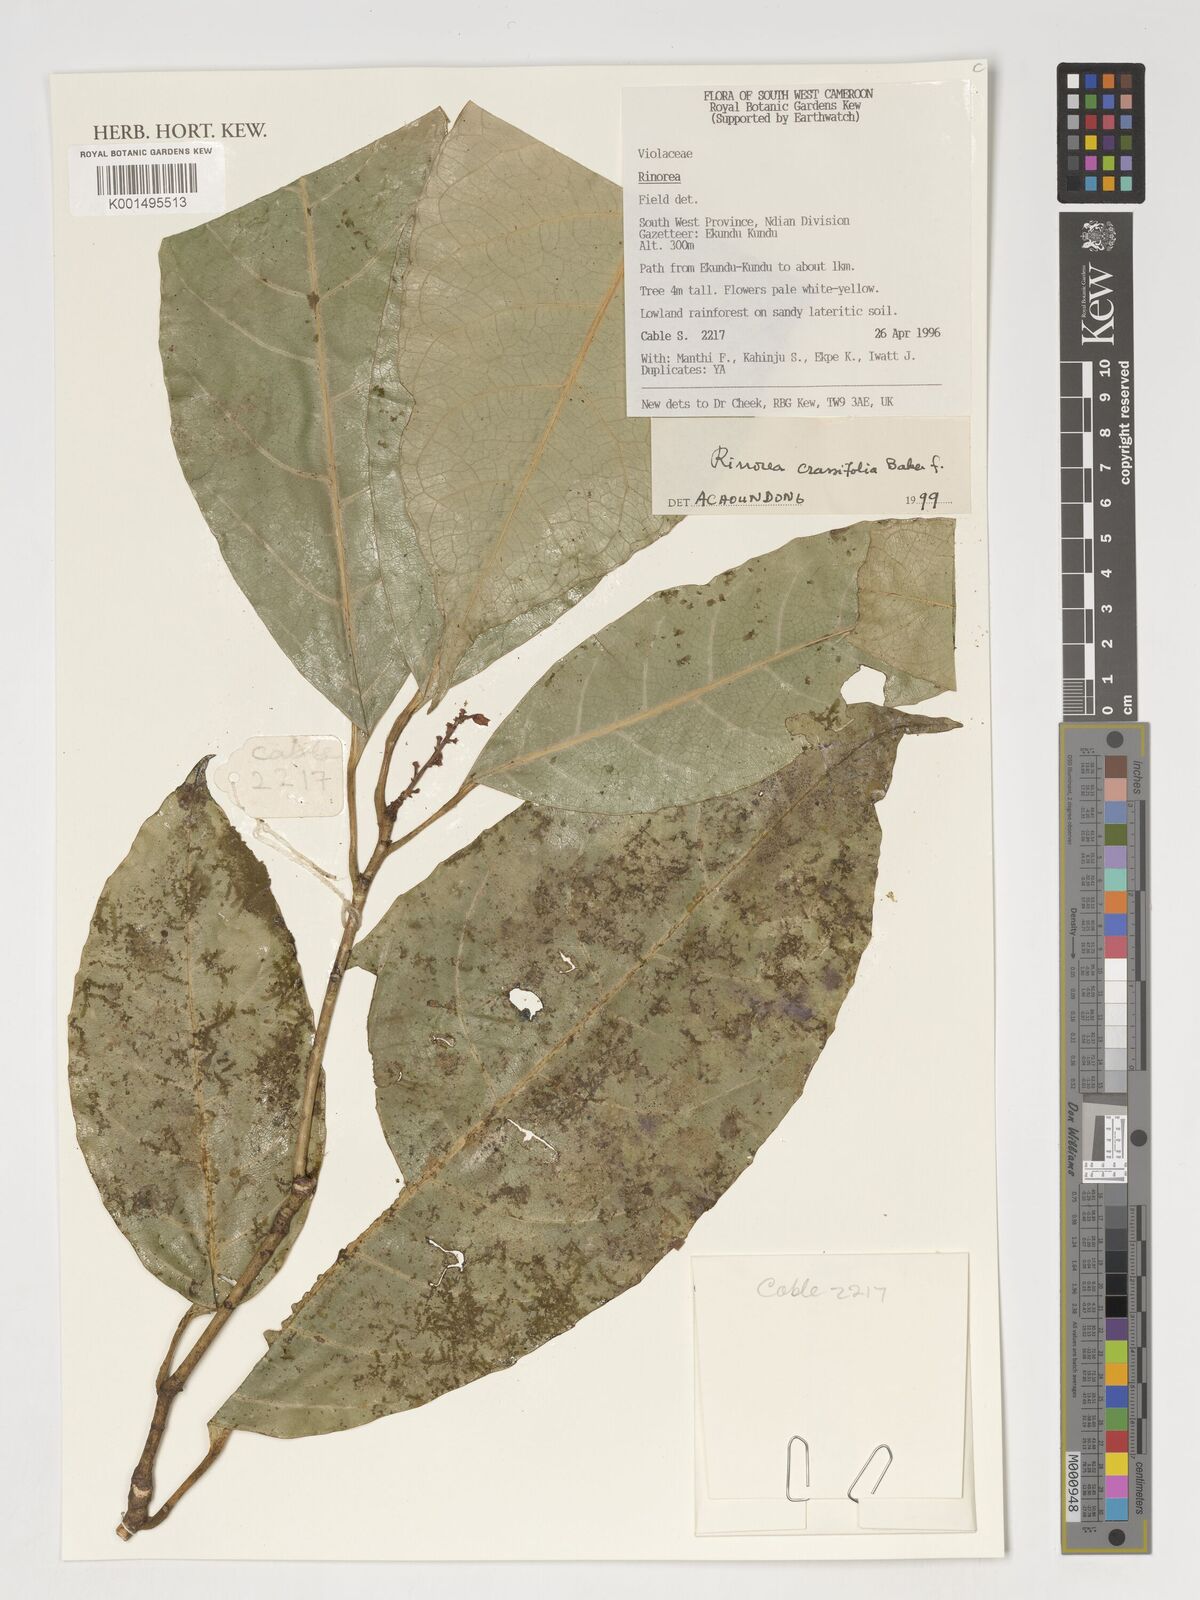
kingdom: Plantae
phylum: Tracheophyta
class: Magnoliopsida
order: Malpighiales
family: Violaceae
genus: Rinorea
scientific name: Rinorea crassifolia
